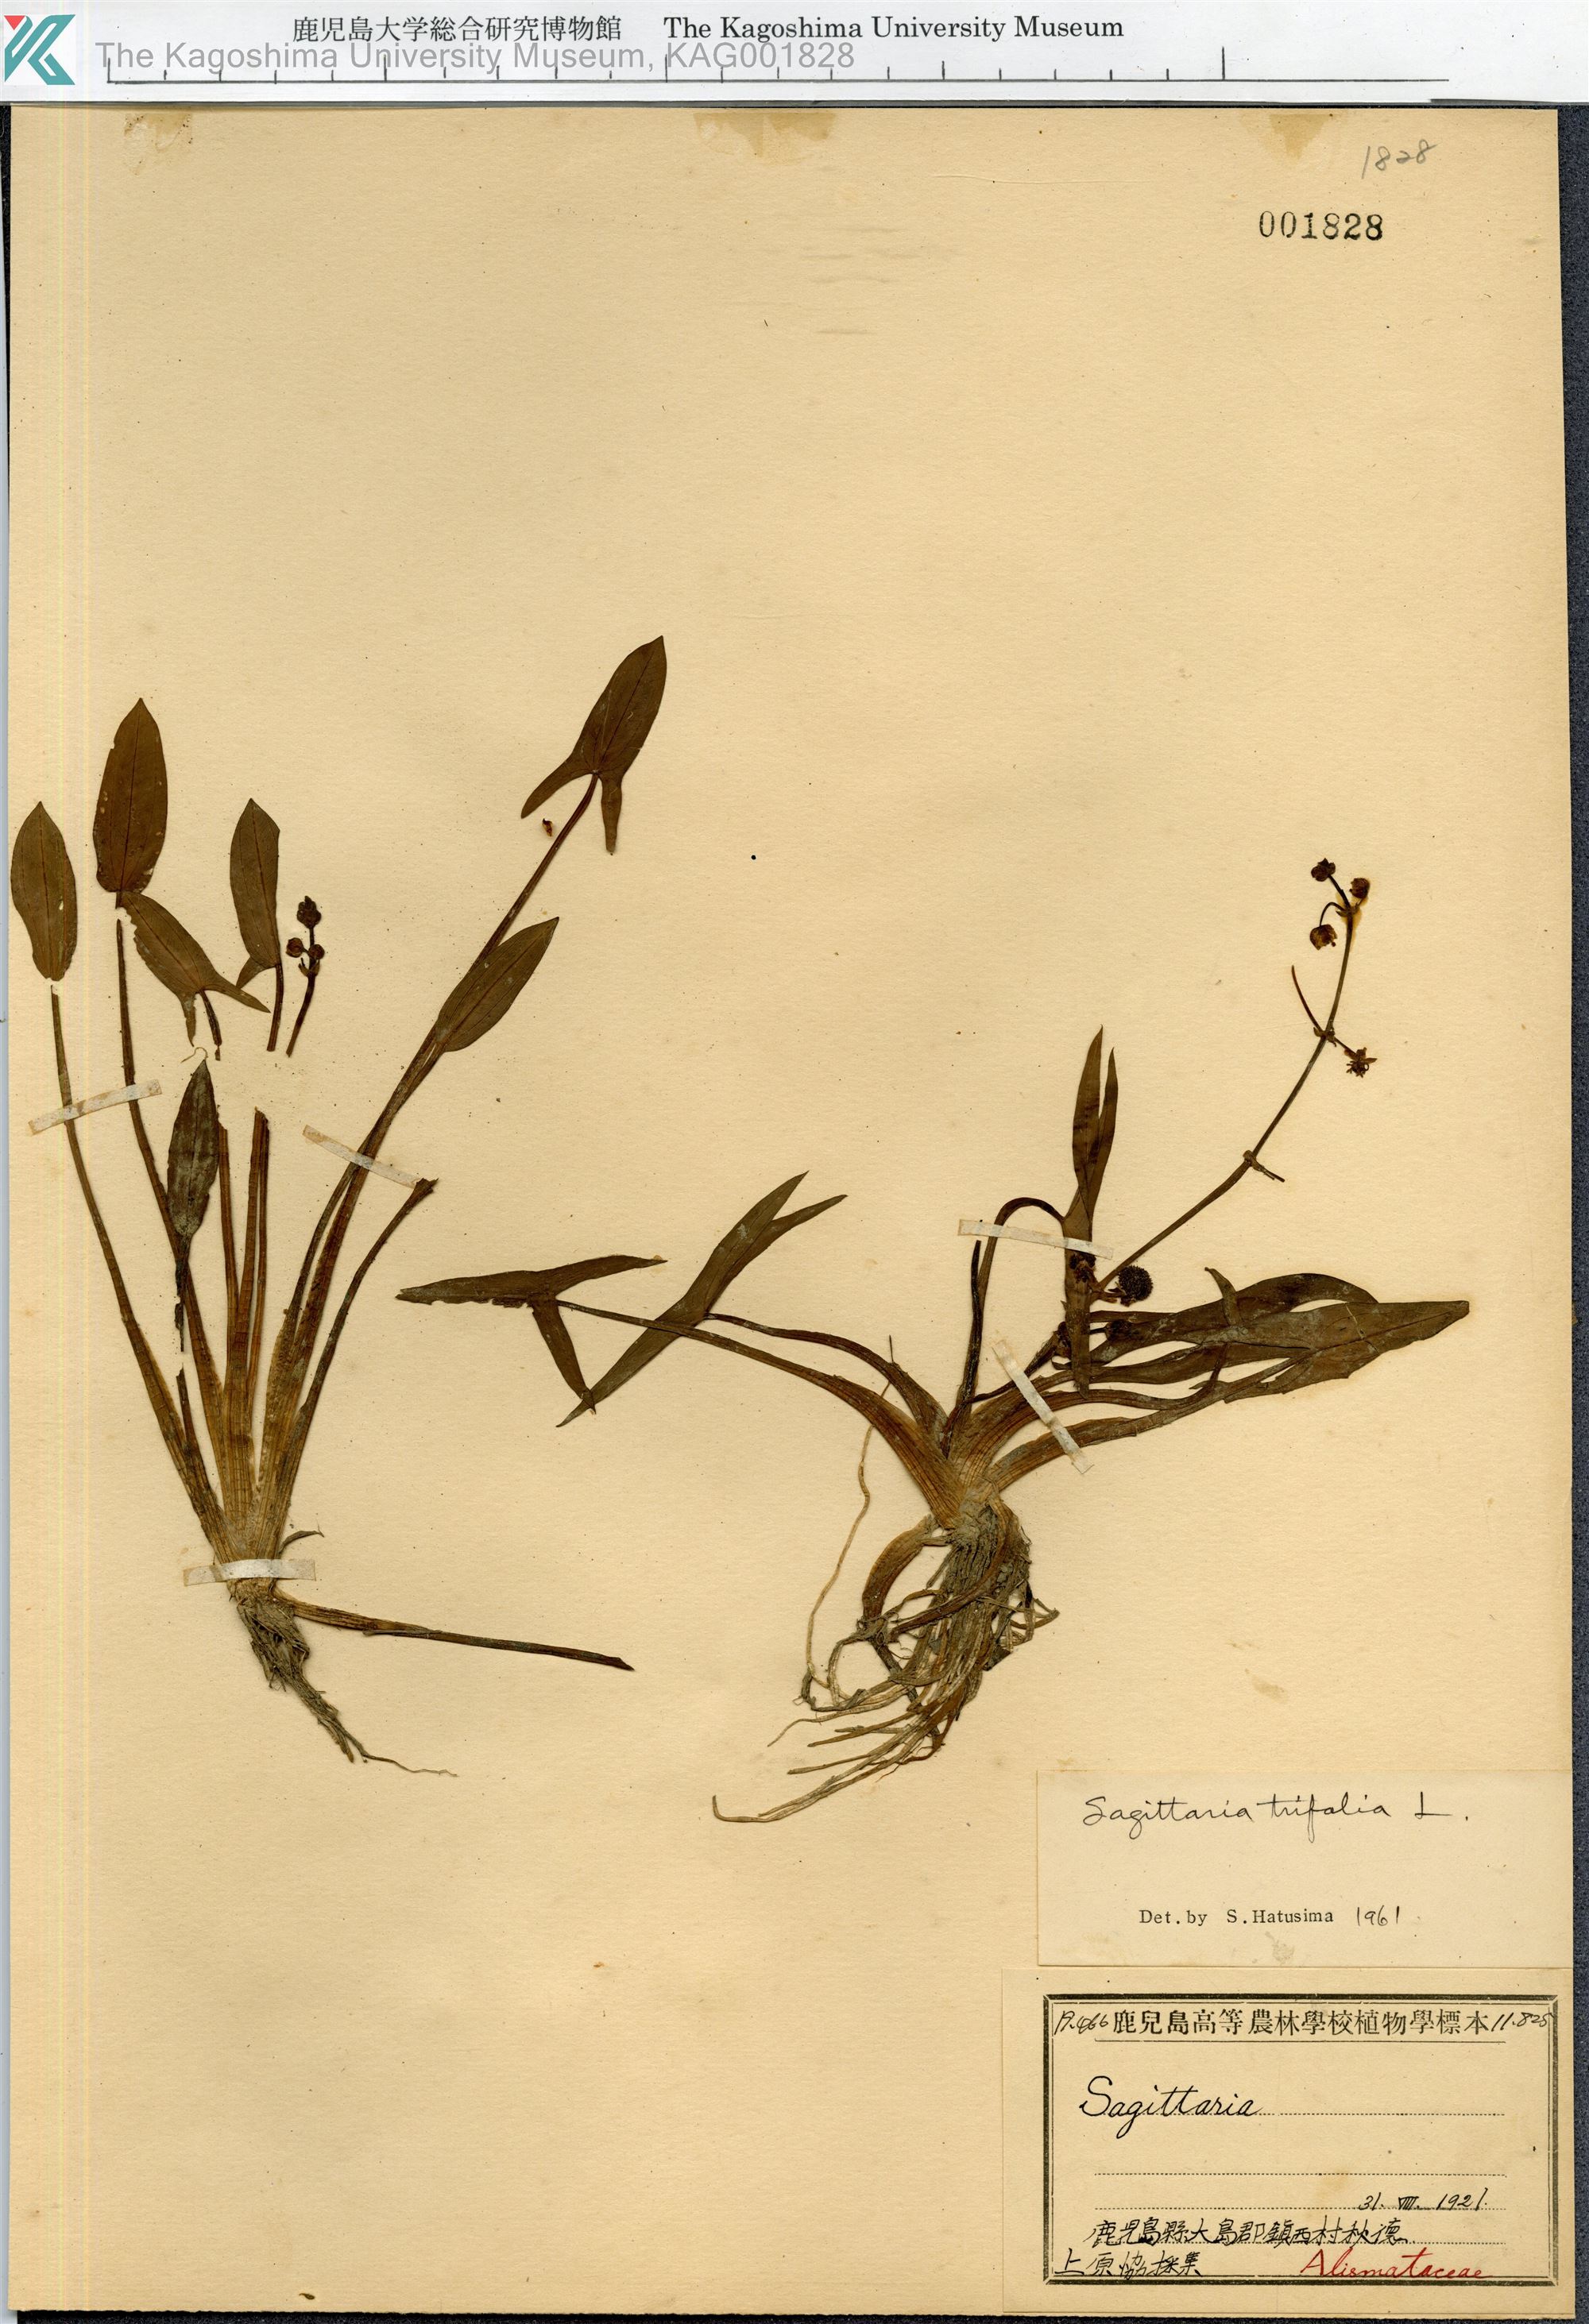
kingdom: Plantae
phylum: Tracheophyta
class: Liliopsida
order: Alismatales
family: Alismataceae
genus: Sagittaria
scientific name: Sagittaria trifolia
